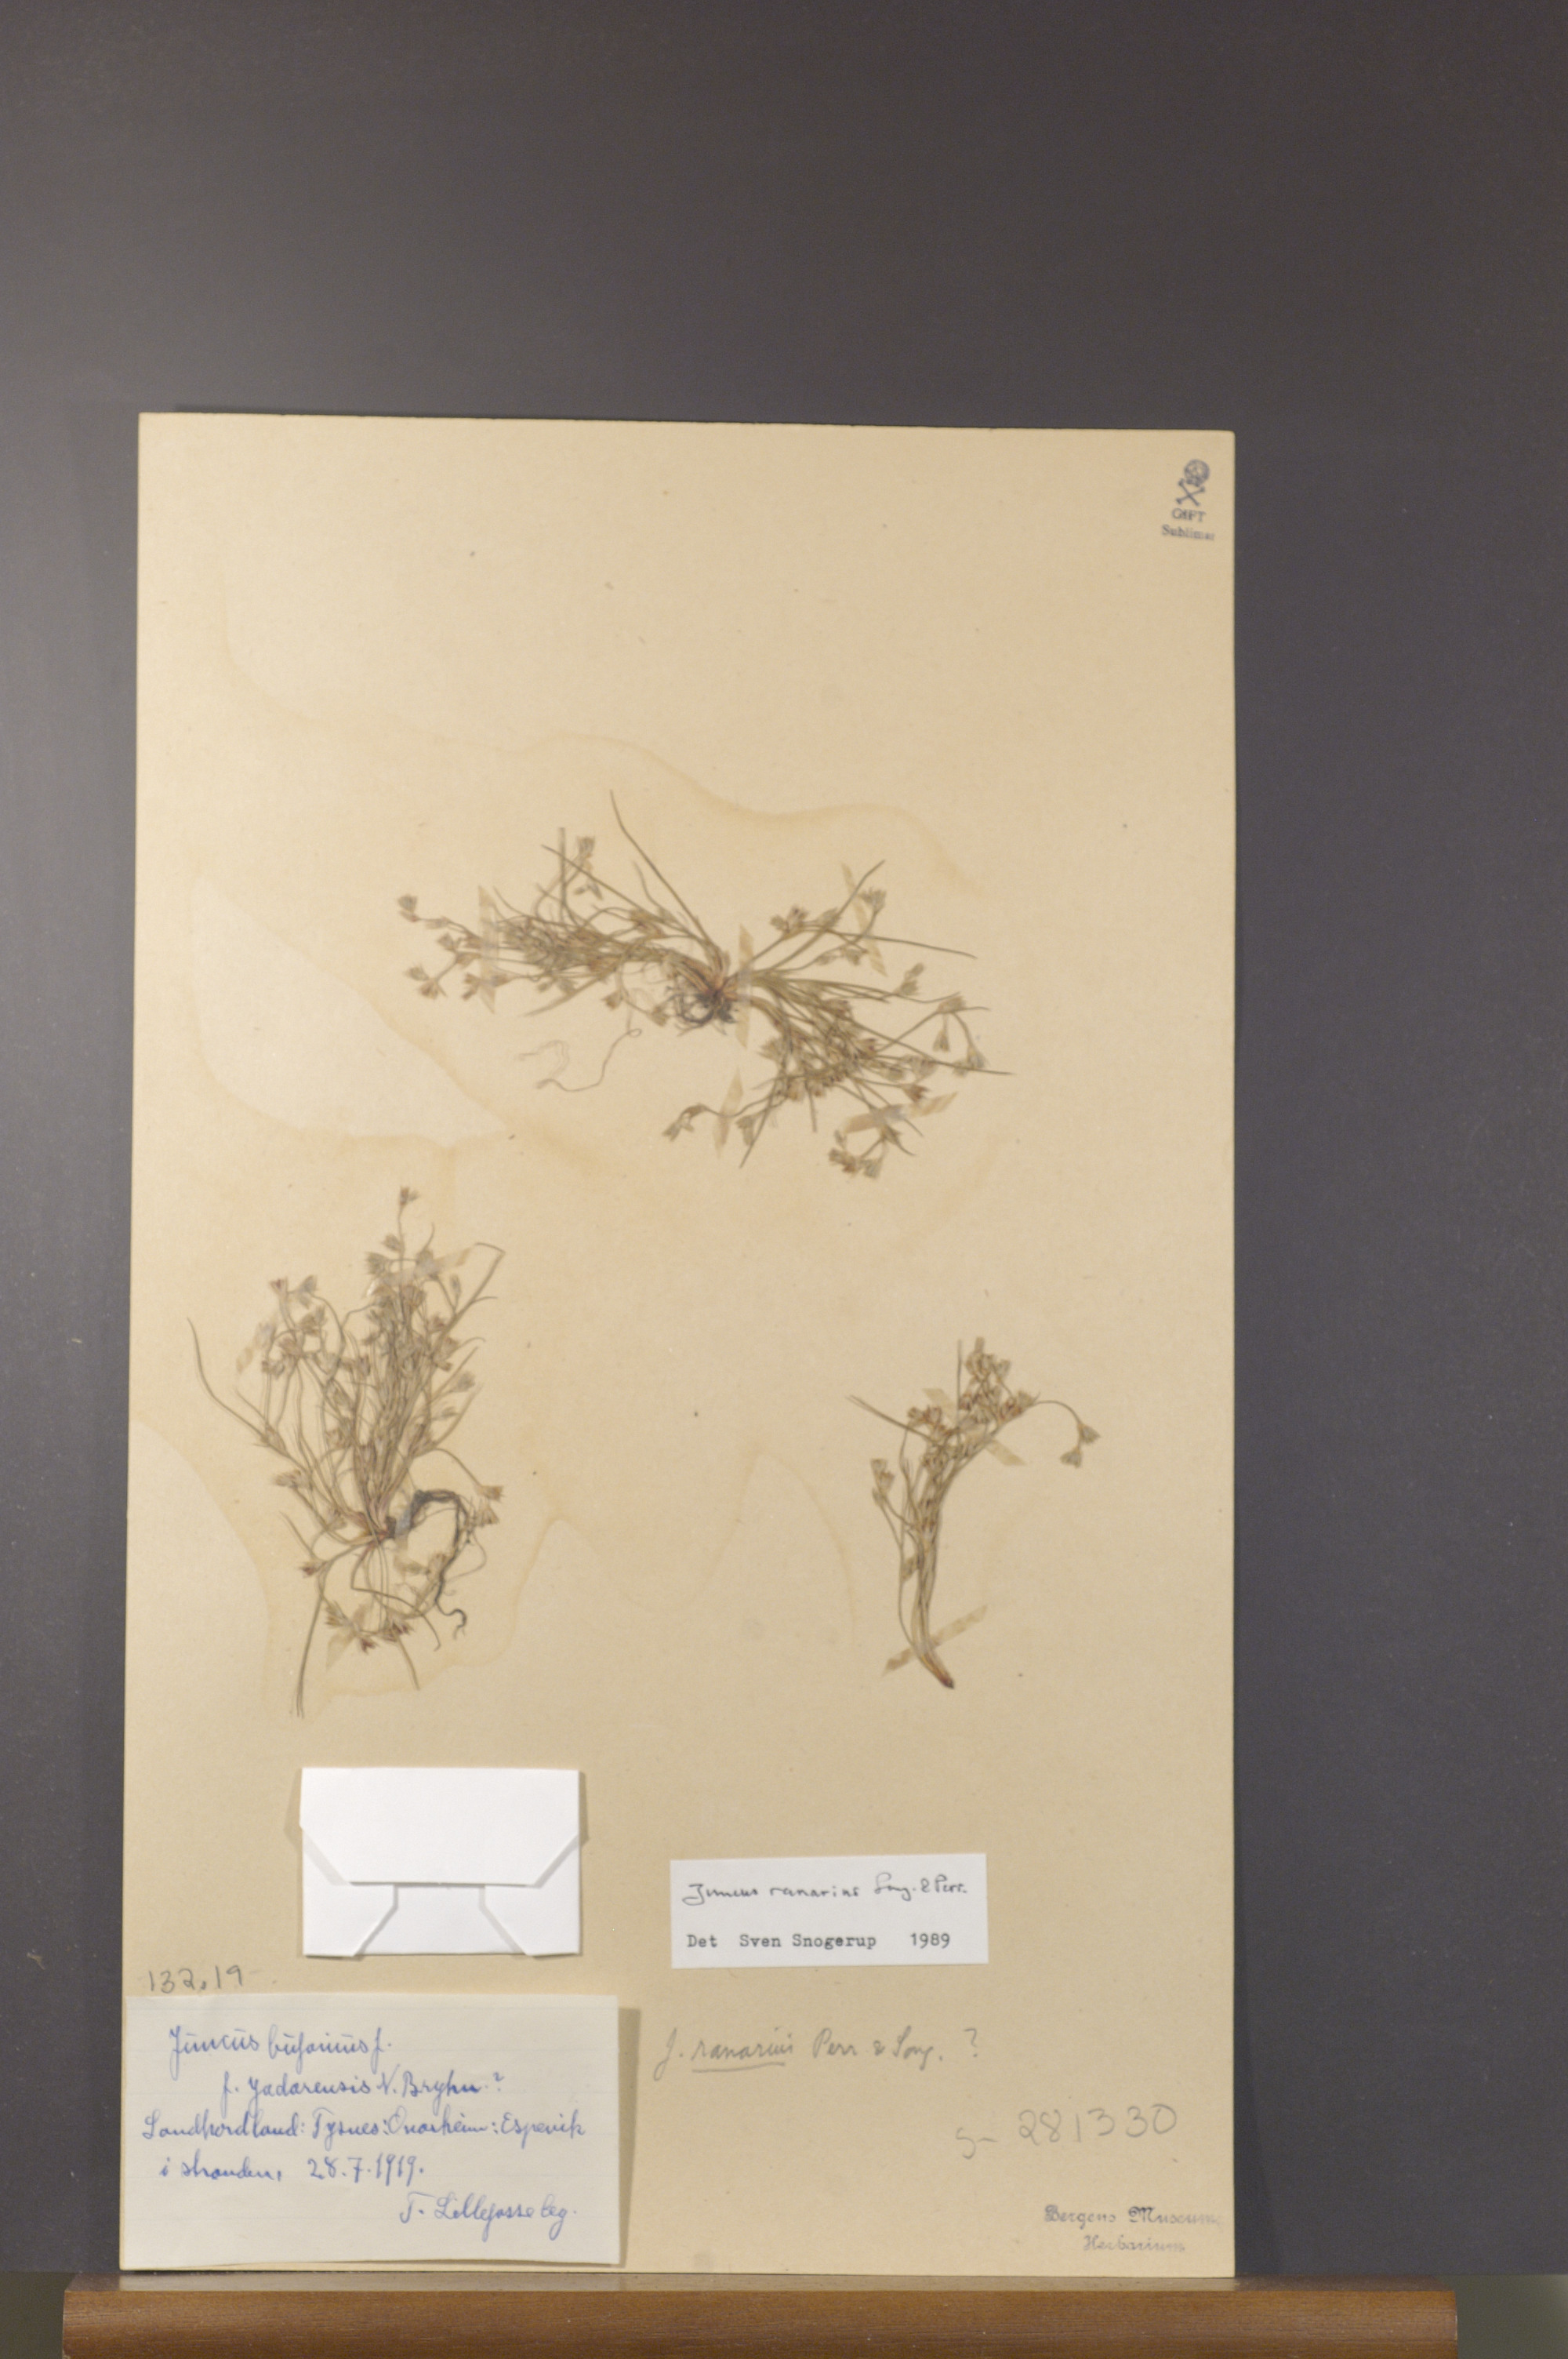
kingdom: Plantae
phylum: Tracheophyta
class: Liliopsida
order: Poales
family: Juncaceae
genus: Juncus
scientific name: Juncus ranarius
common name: Frog rush
